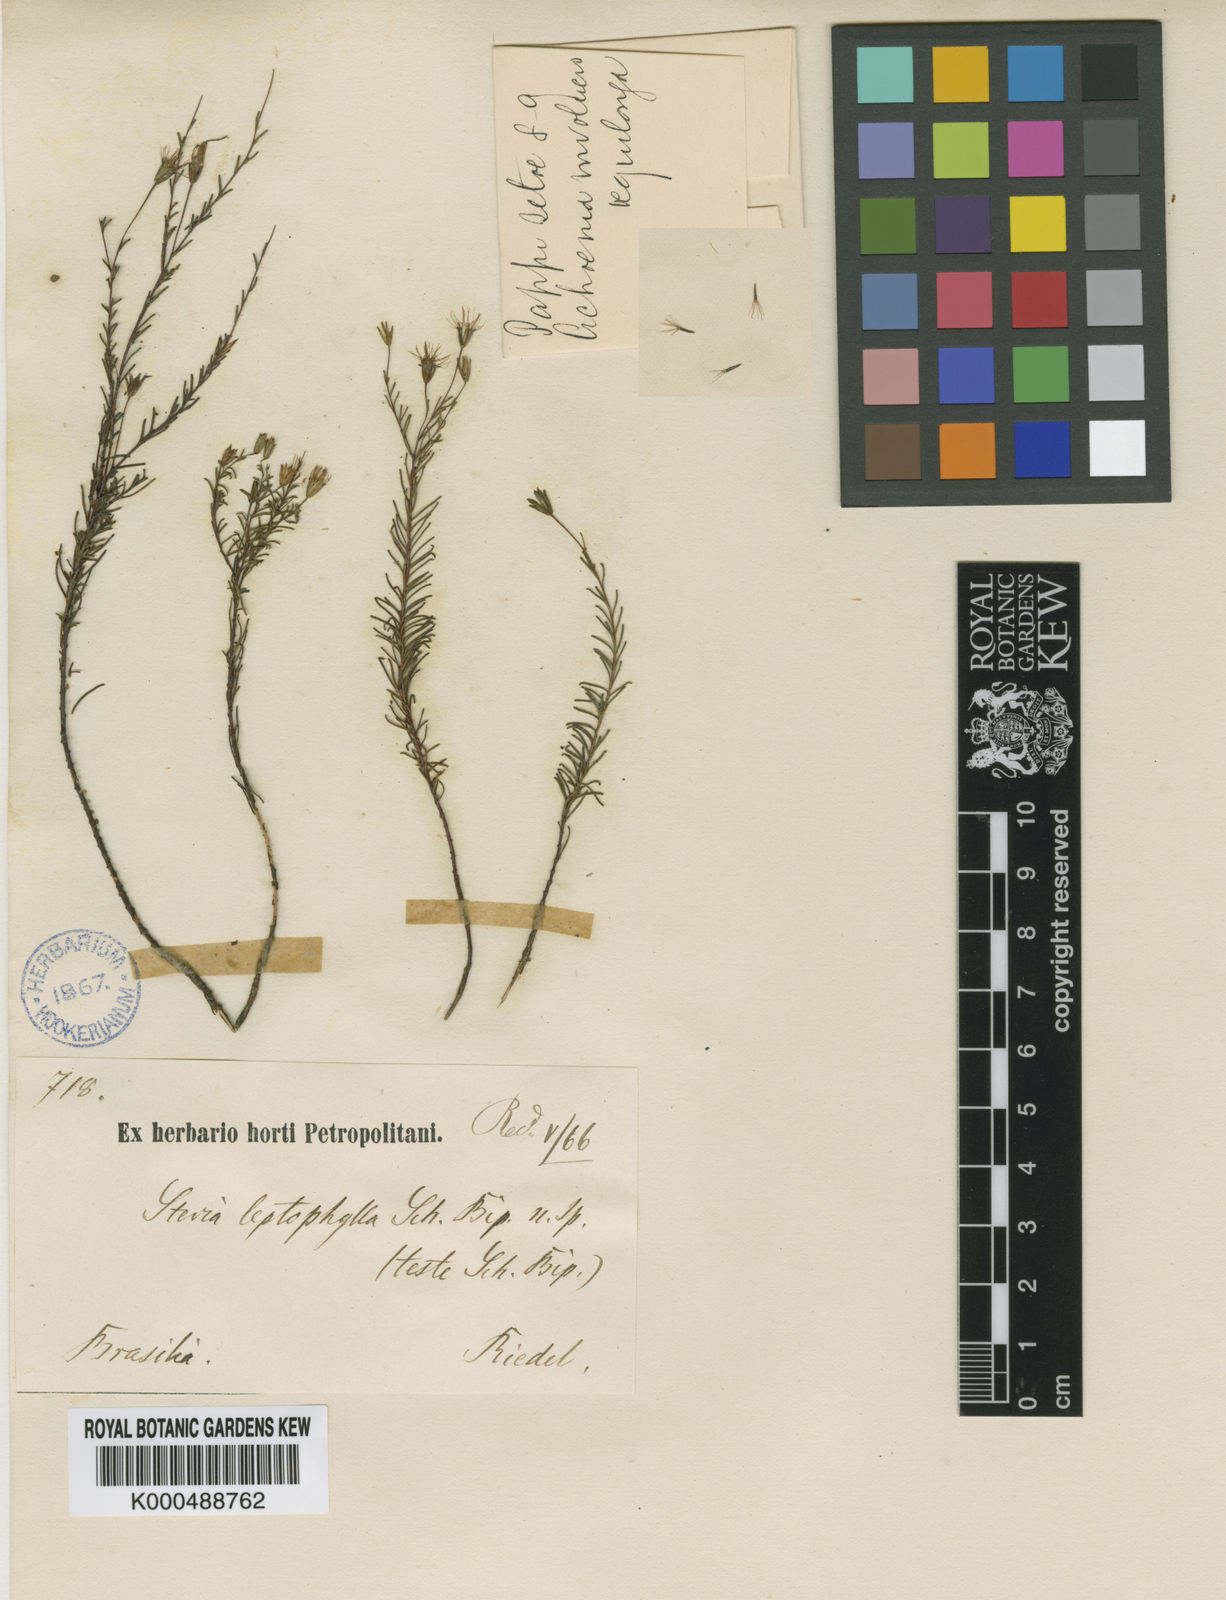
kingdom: Plantae
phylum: Tracheophyta
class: Magnoliopsida
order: Asterales
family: Asteraceae
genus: Stevia
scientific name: Stevia leptophylla
